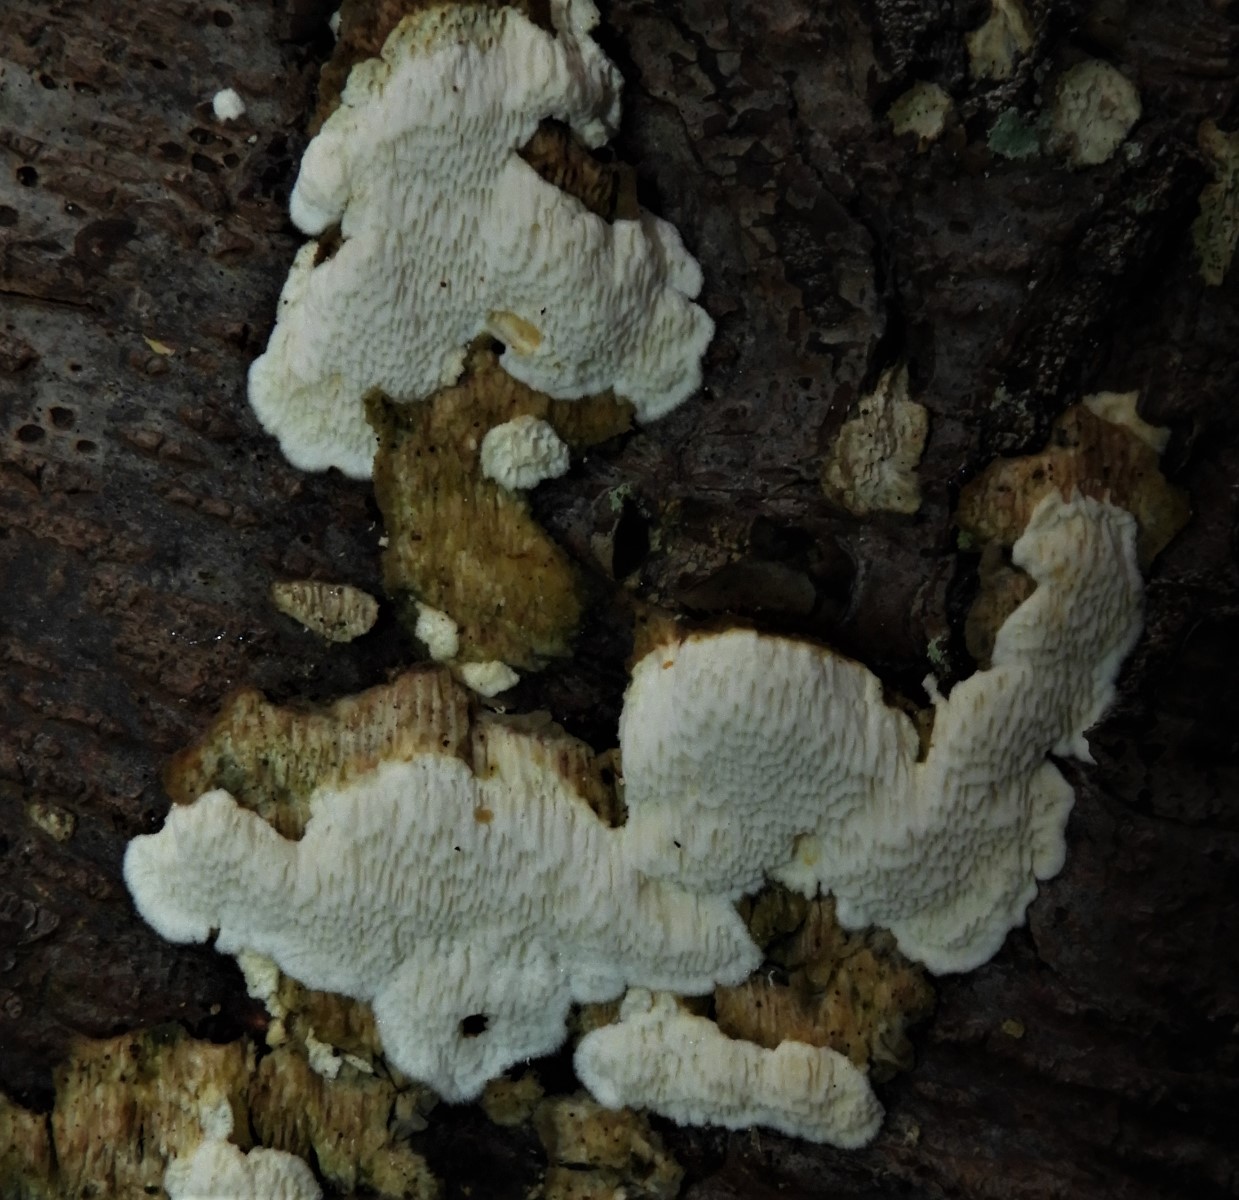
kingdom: Fungi
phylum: Basidiomycota
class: Agaricomycetes
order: Polyporales
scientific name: Polyporales
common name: poresvampordenen
